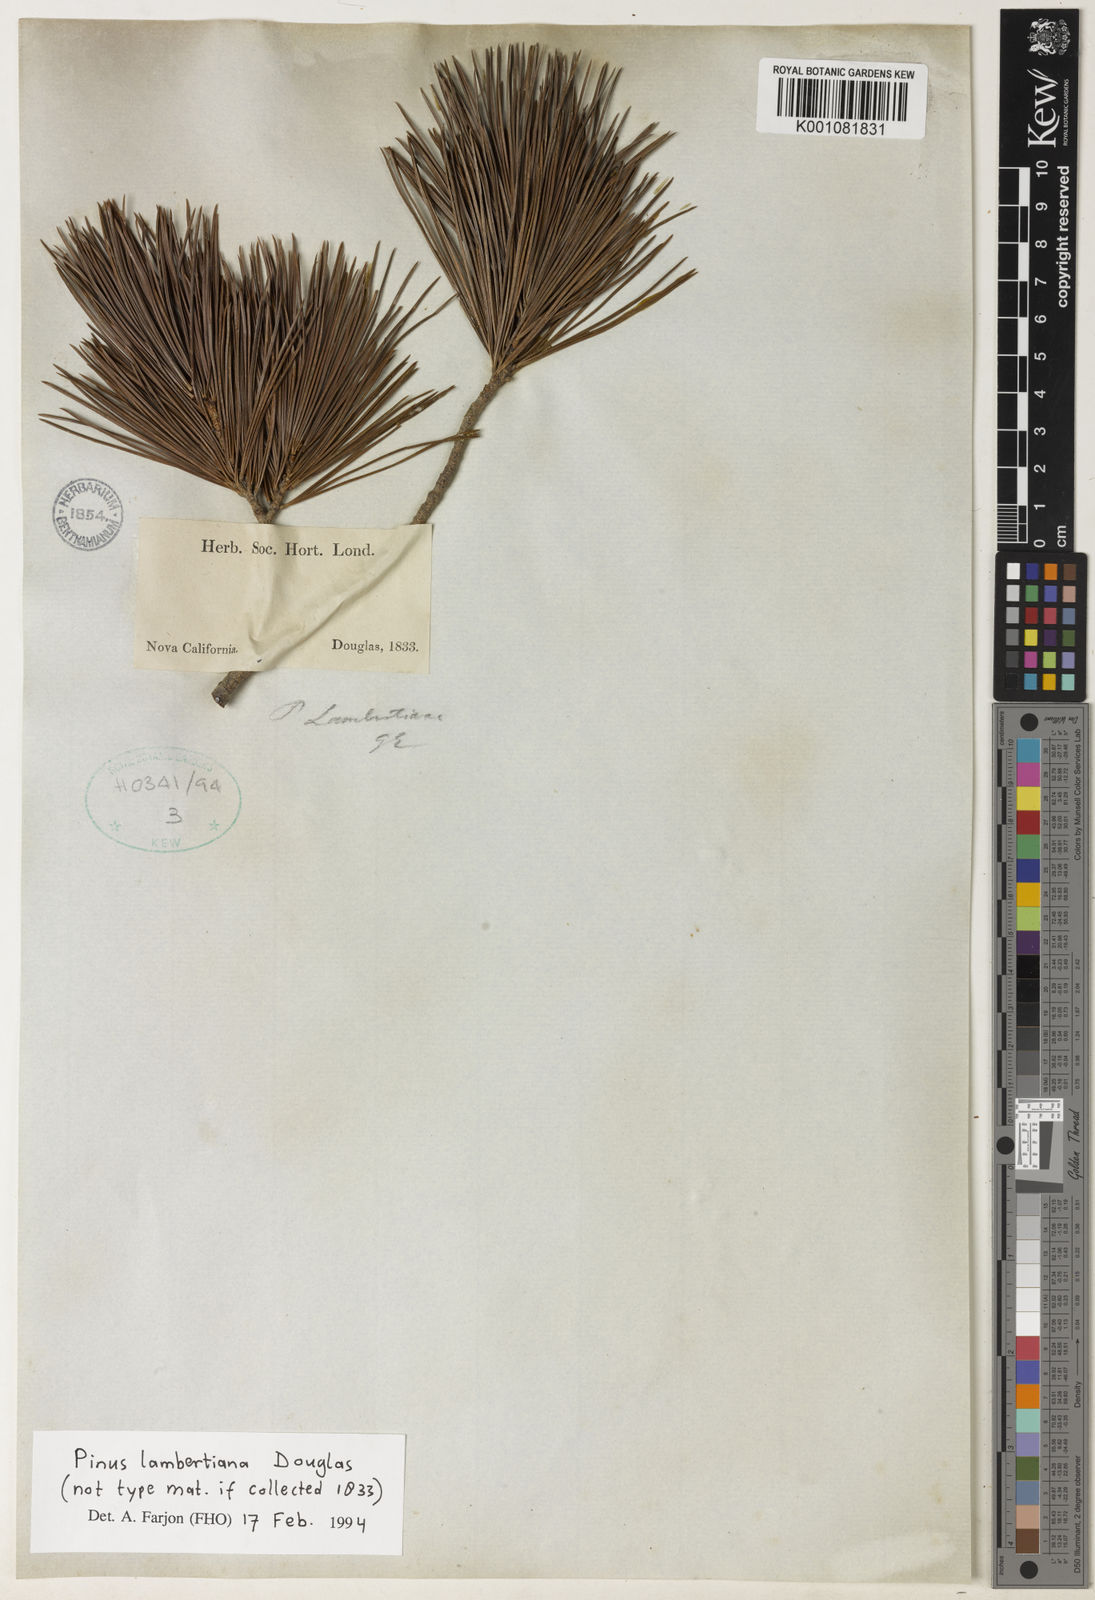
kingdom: Plantae
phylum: Tracheophyta
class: Pinopsida
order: Pinales
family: Pinaceae
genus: Pinus
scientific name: Pinus lambertiana
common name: Sugar pine
